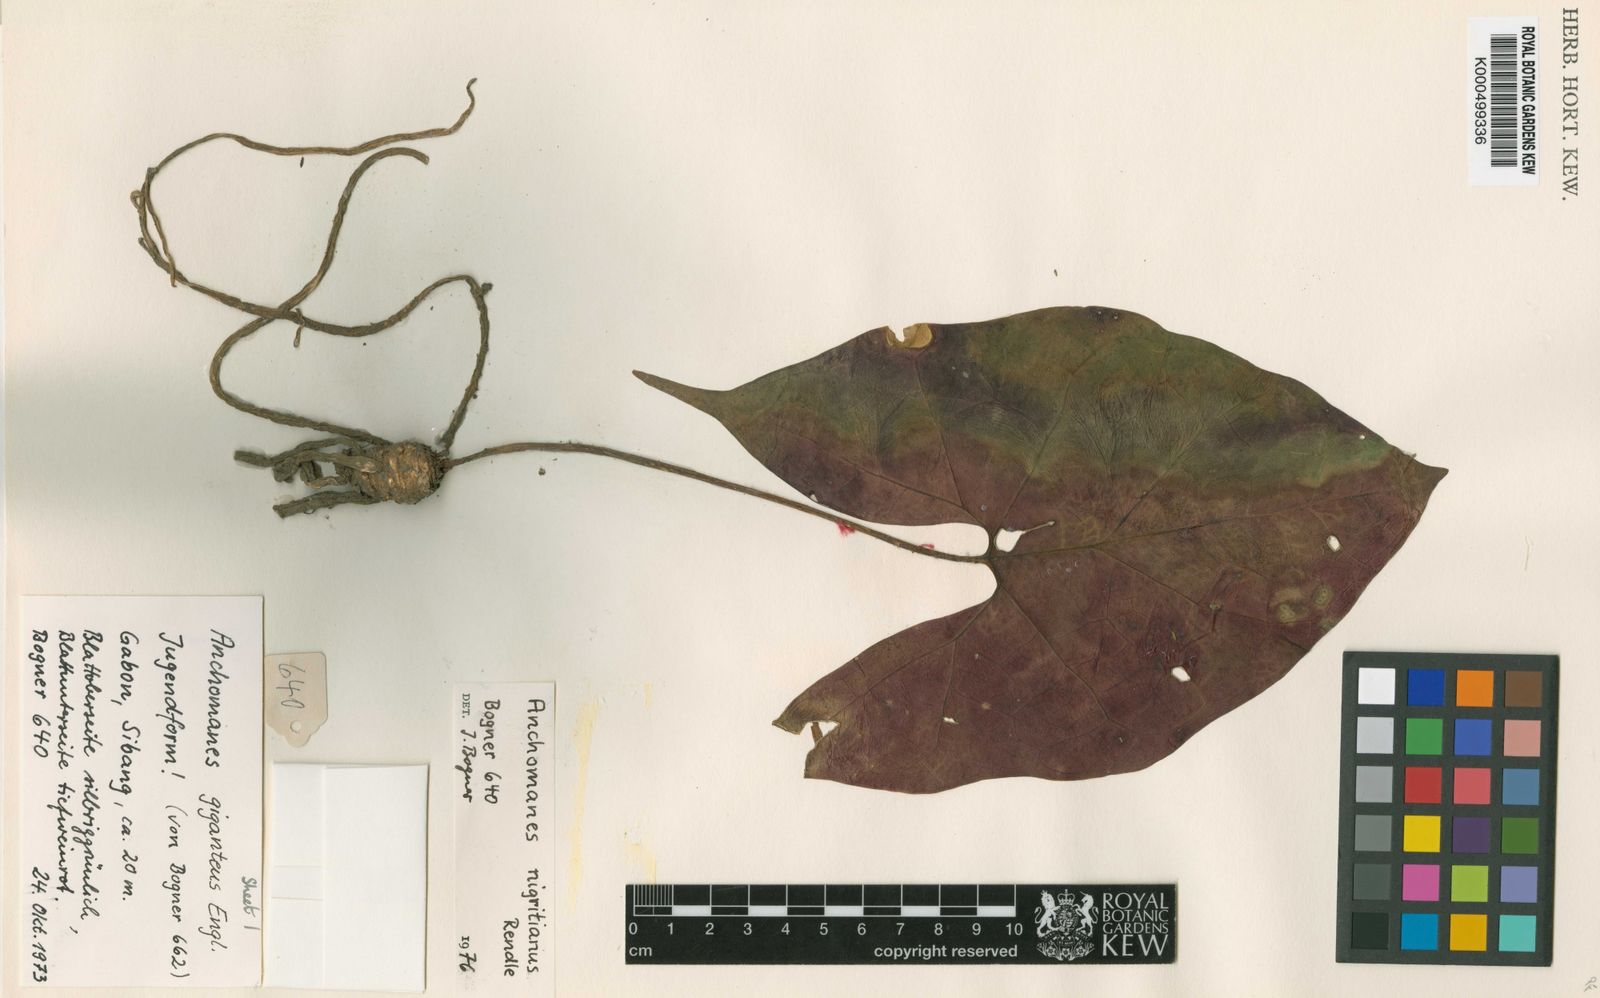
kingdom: Plantae
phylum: Tracheophyta
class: Liliopsida
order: Alismatales
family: Araceae
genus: Anchomanes
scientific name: Anchomanes nigritianus
